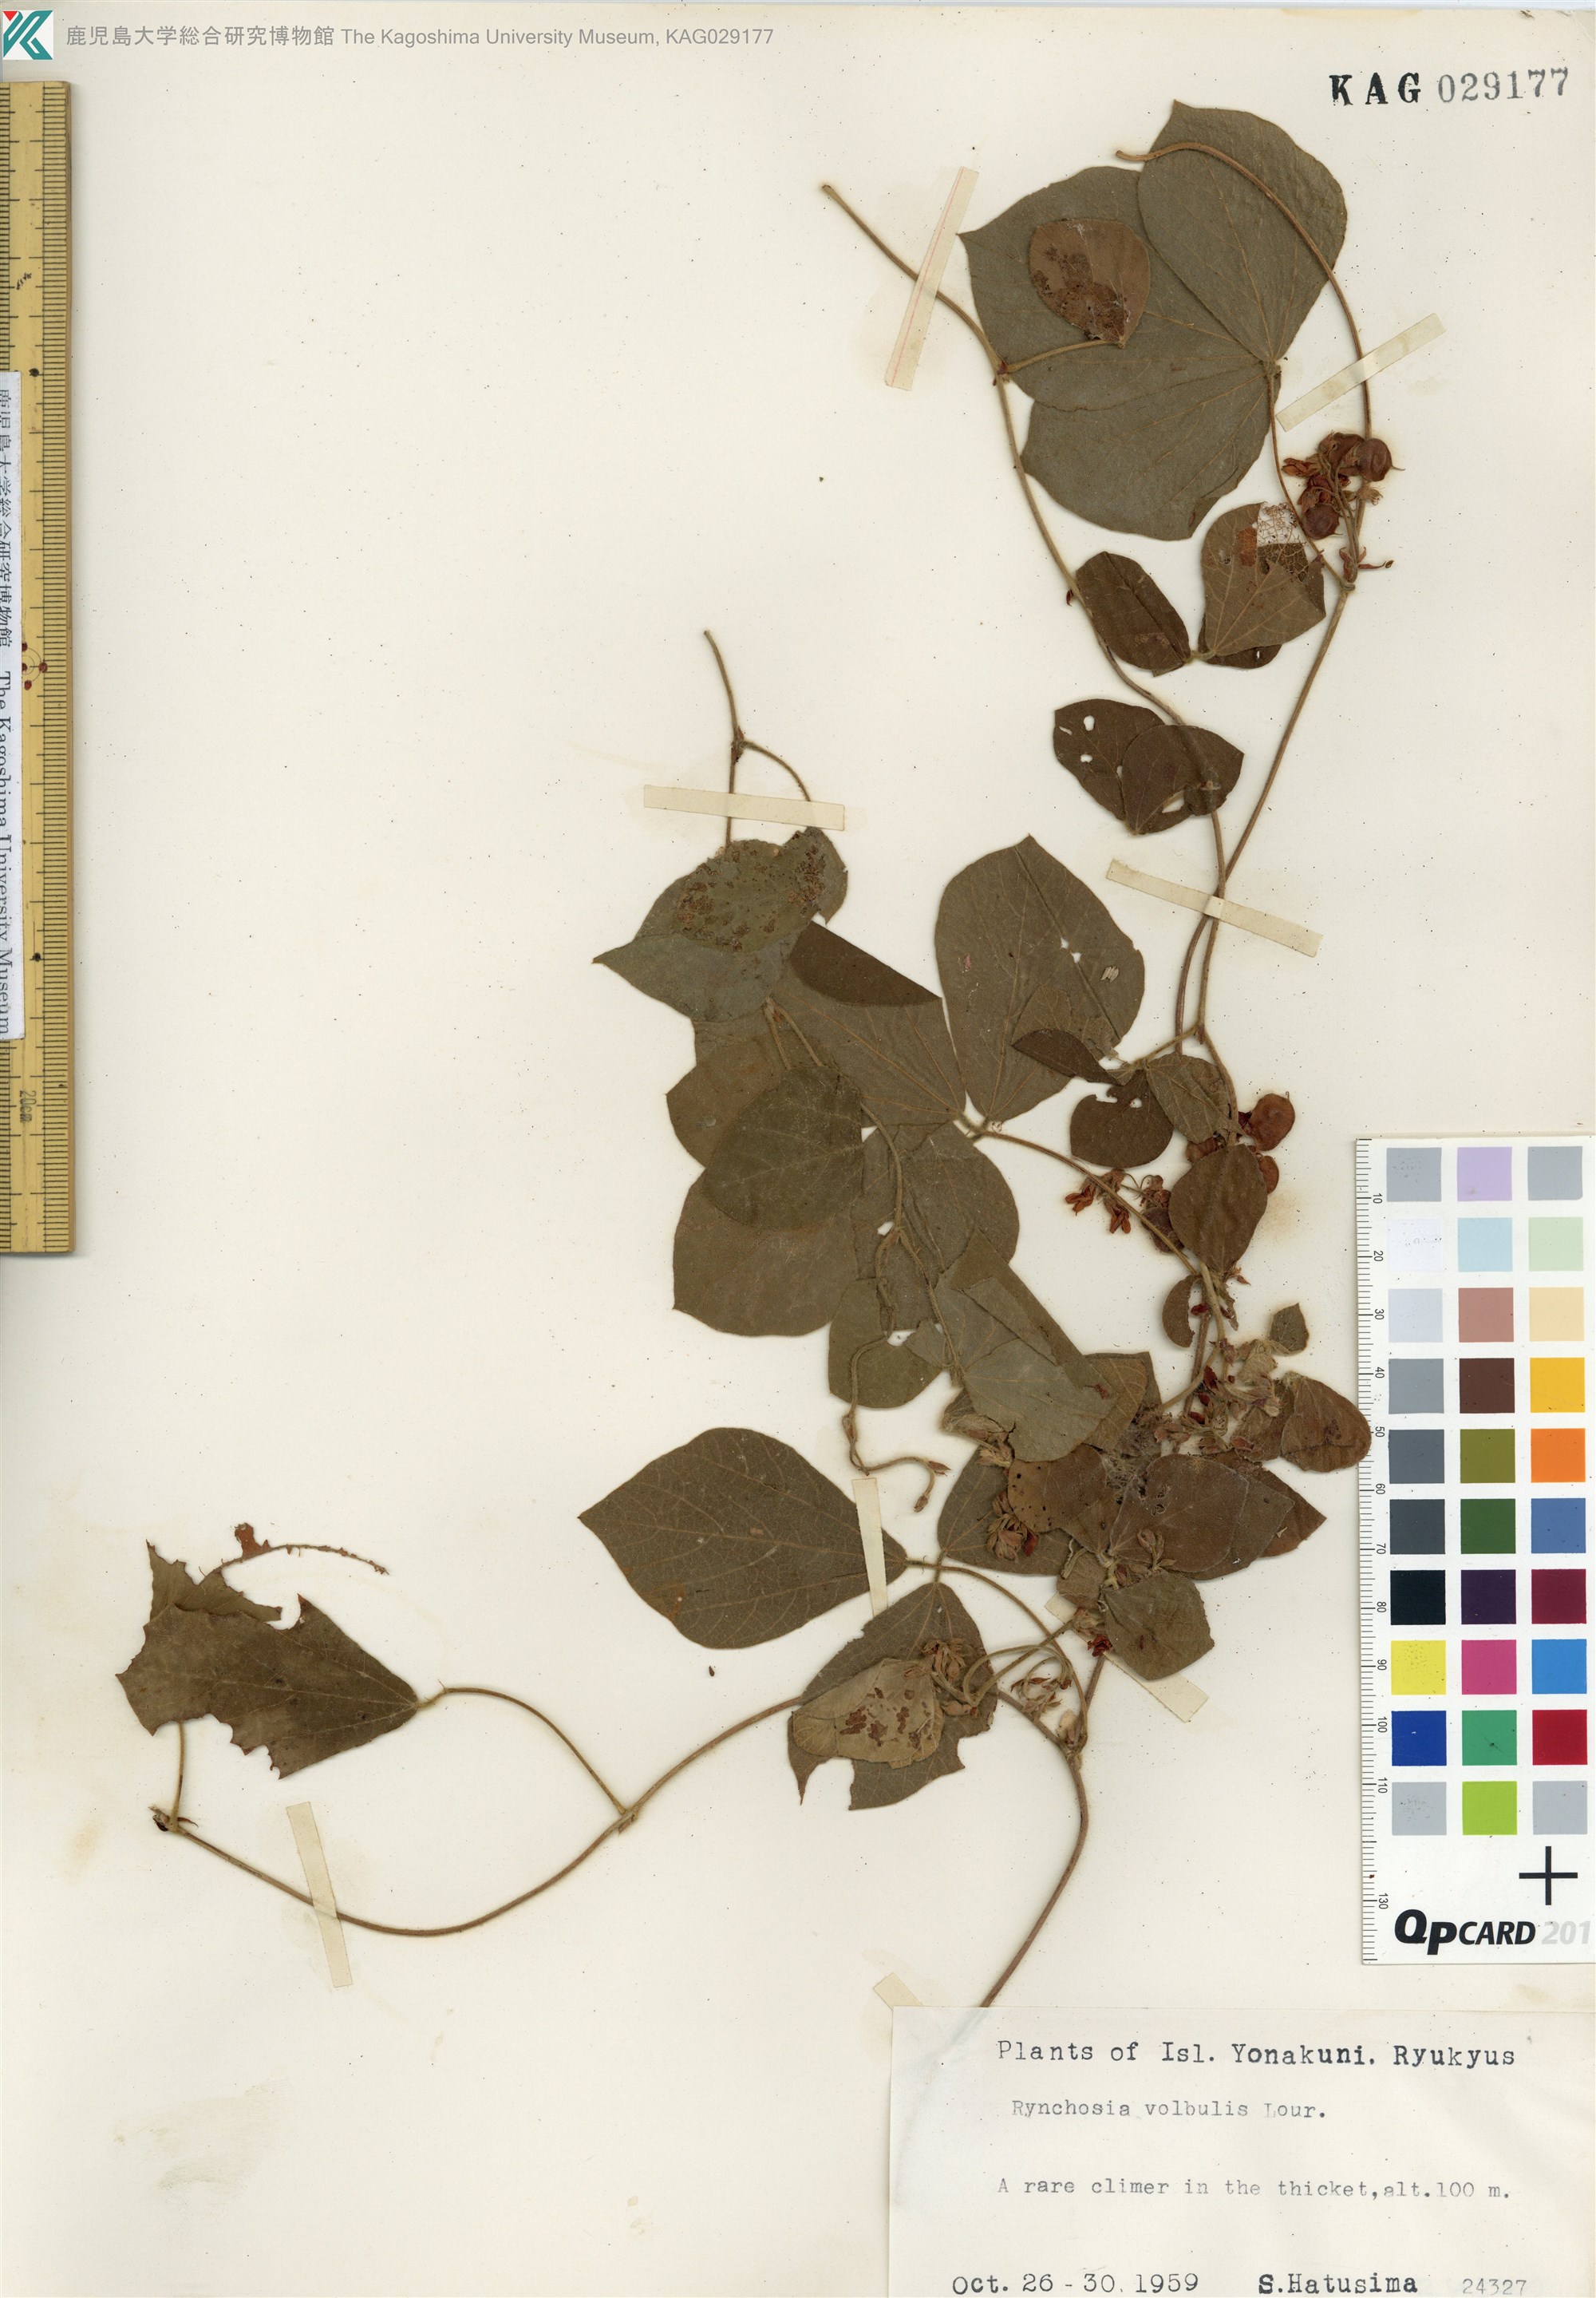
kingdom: Plantae
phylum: Tracheophyta
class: Magnoliopsida
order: Fabales
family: Fabaceae
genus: Rhynchosia
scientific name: Rhynchosia volubilis
